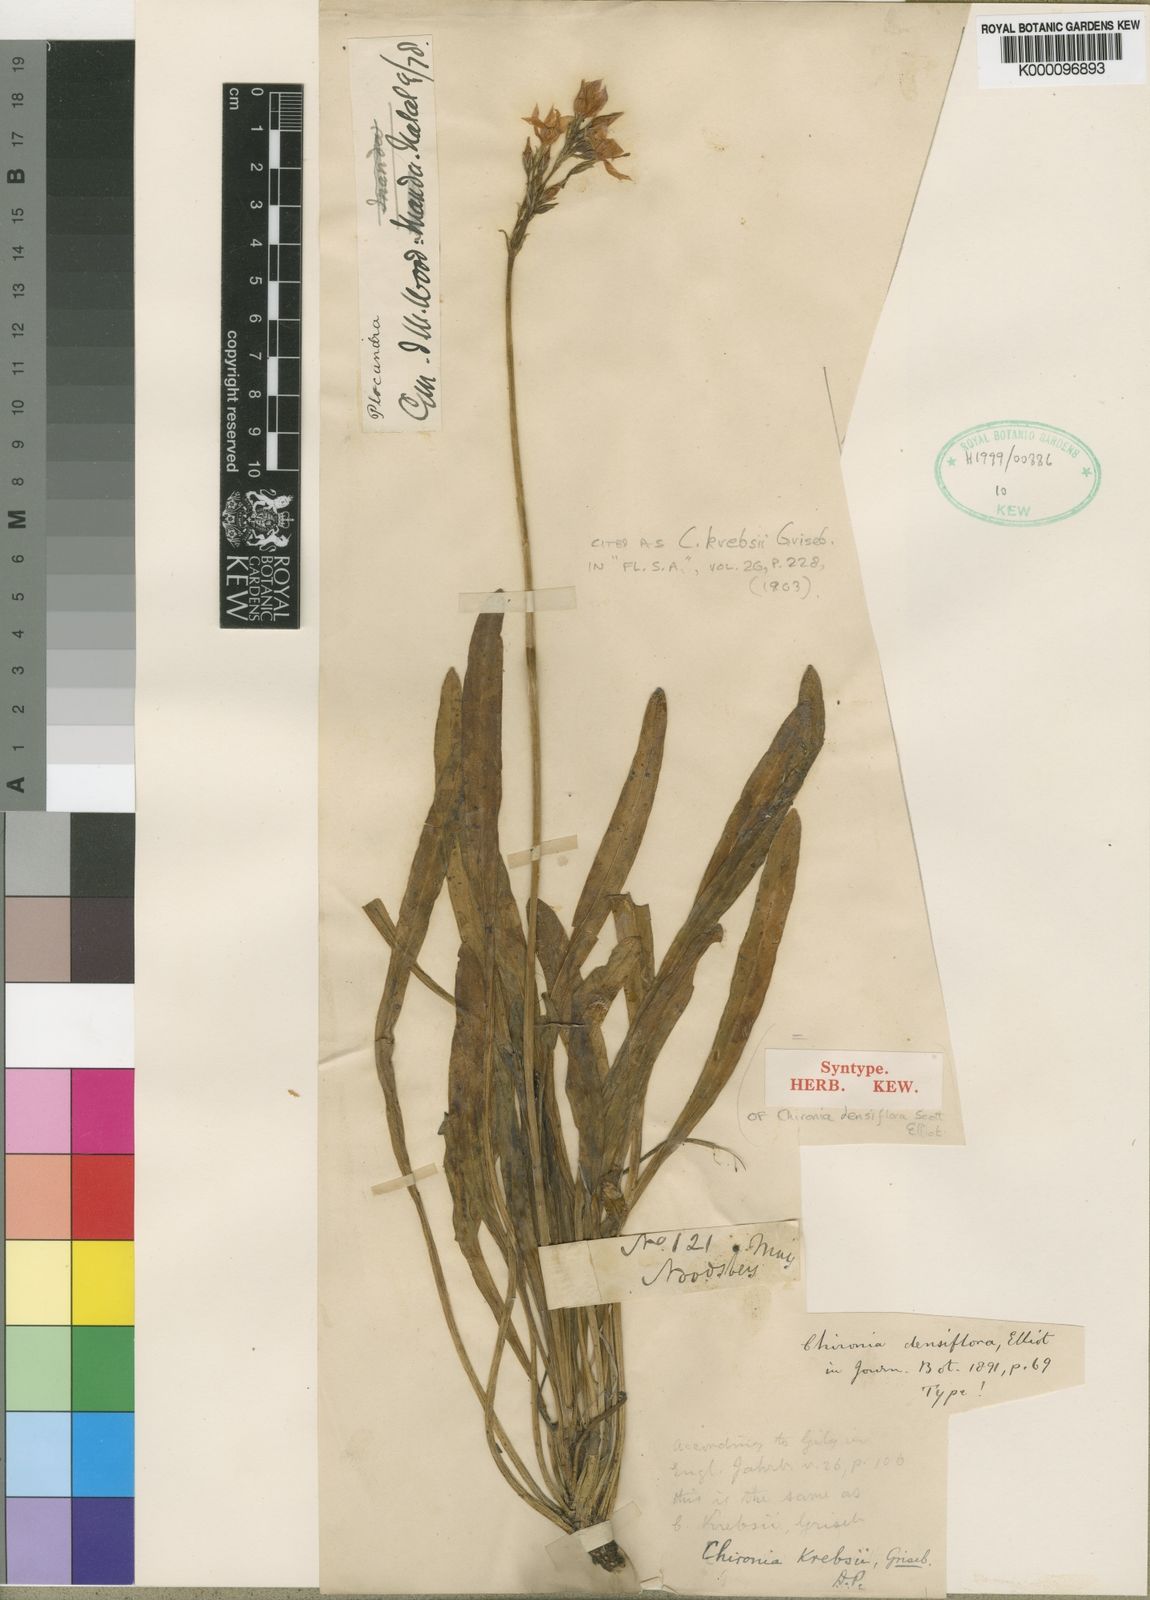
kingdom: Plantae
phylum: Tracheophyta
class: Magnoliopsida
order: Gentianales
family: Gentianaceae
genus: Chironia
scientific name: Chironia krebsii
